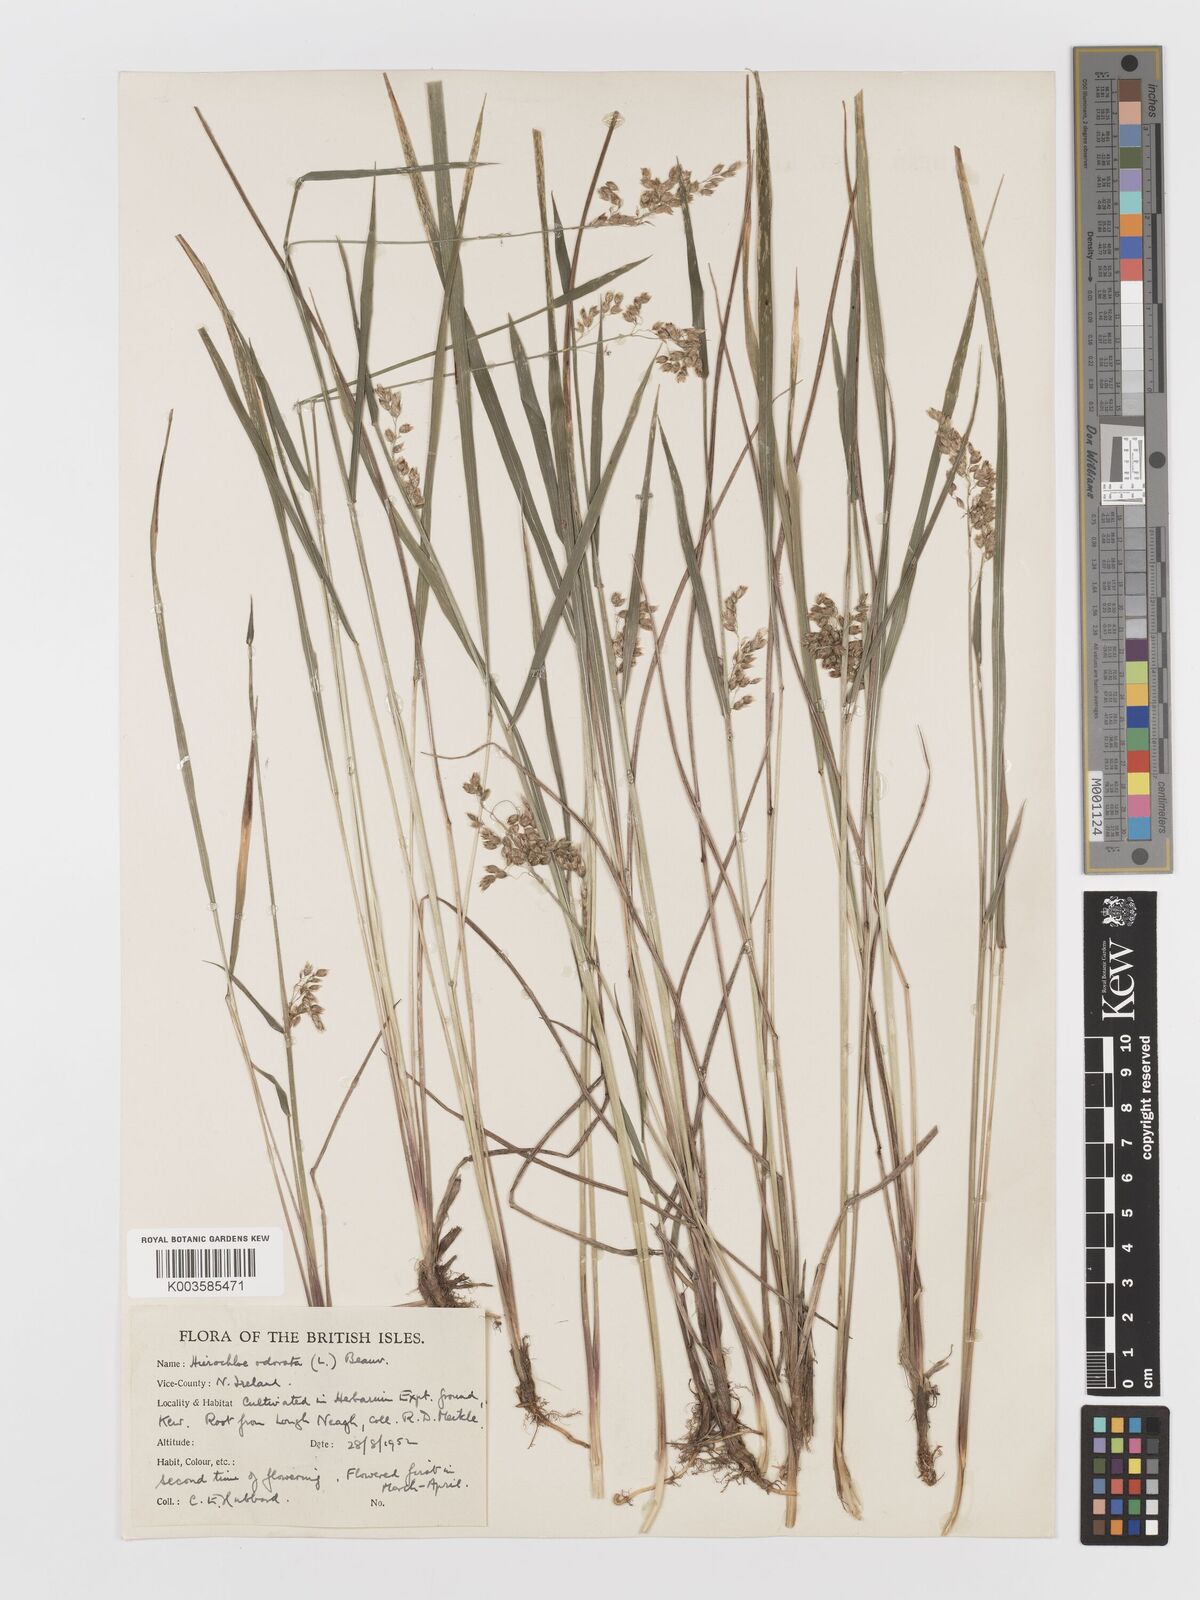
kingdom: Plantae
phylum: Tracheophyta
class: Liliopsida
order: Poales
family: Poaceae
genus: Anthoxanthum
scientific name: Anthoxanthum nitens
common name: Holy grass
